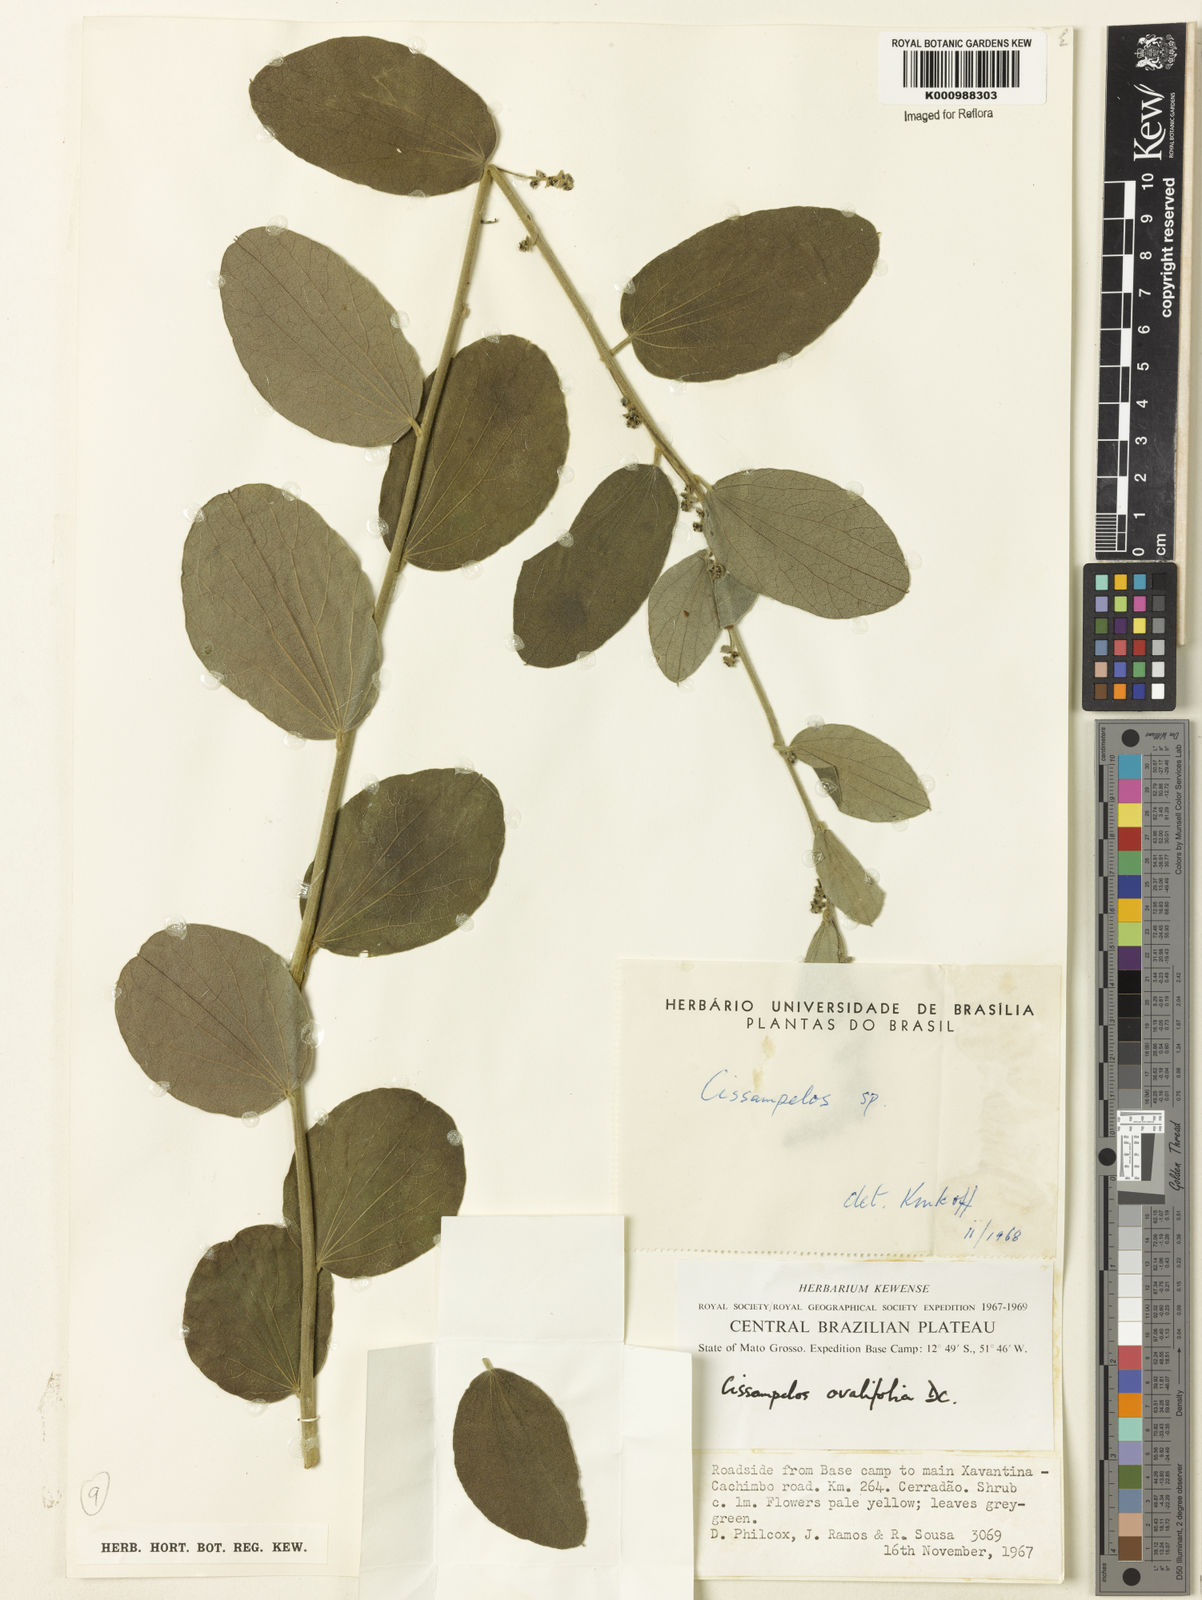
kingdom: Plantae
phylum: Tracheophyta
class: Magnoliopsida
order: Ranunculales
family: Menispermaceae
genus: Cissampelos
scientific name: Cissampelos ovalifolia
